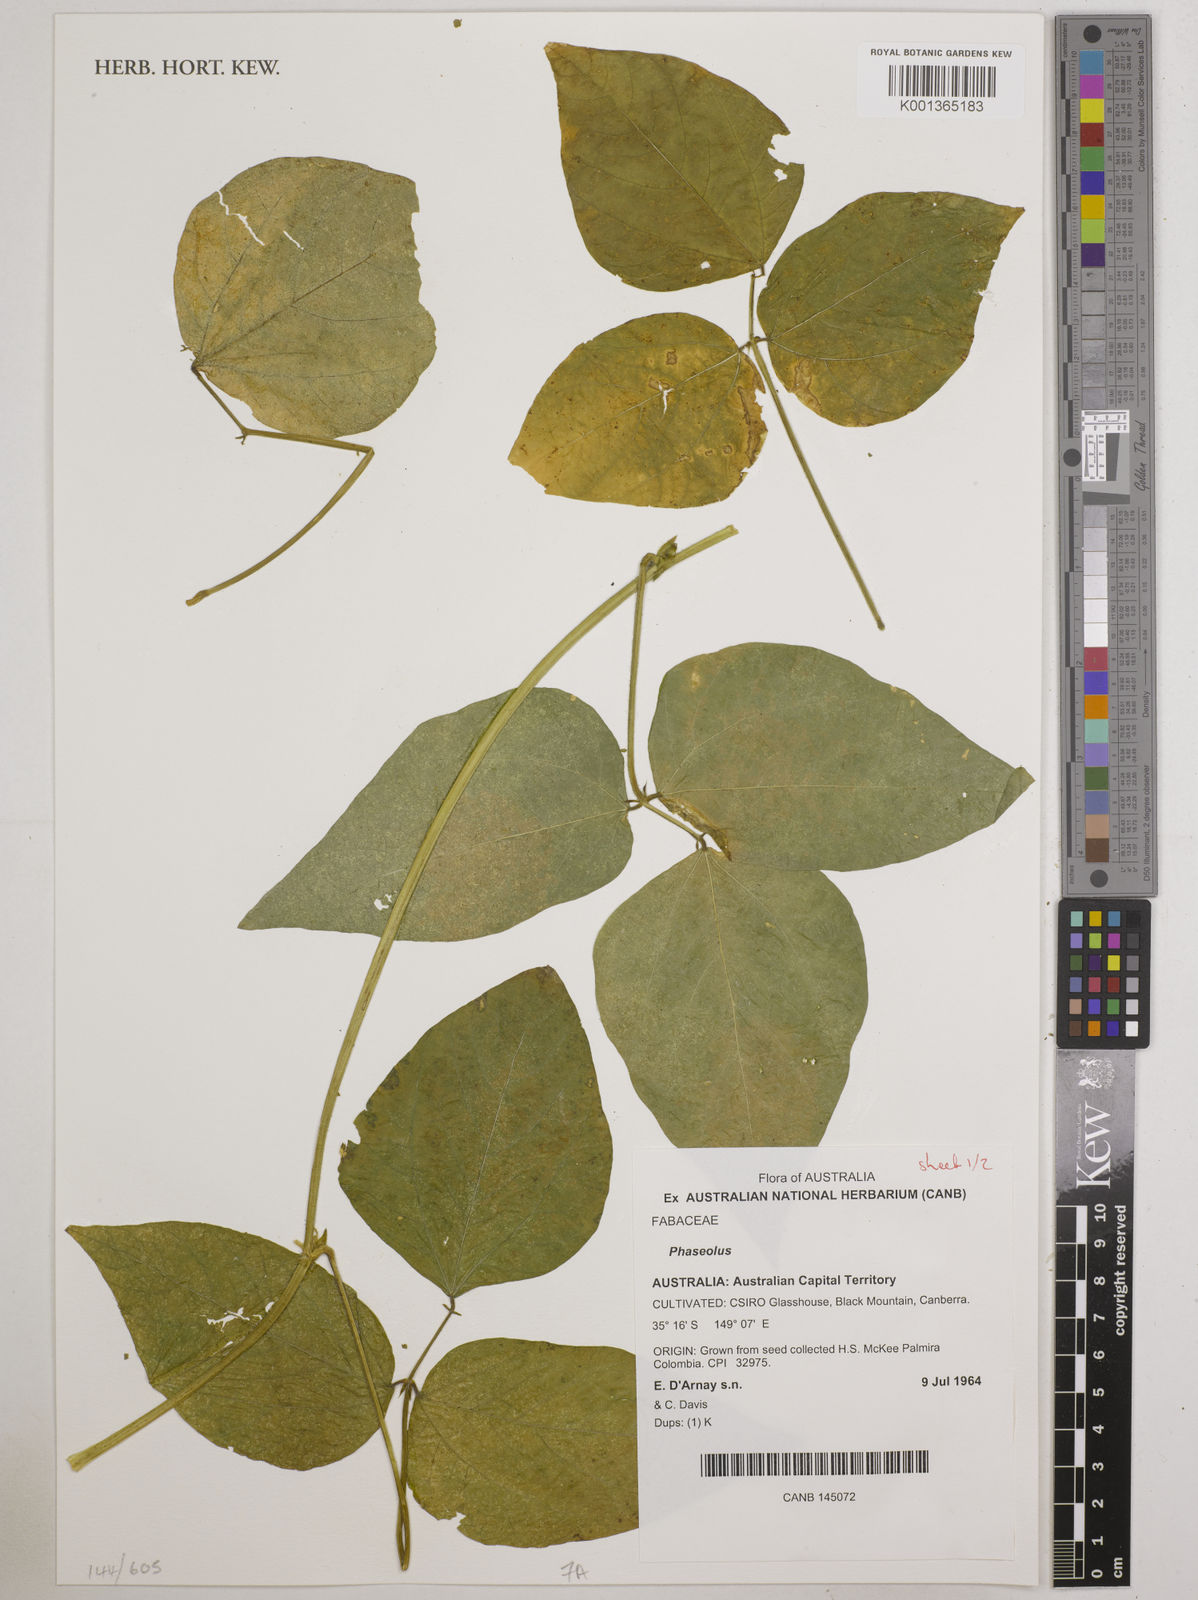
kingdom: Plantae
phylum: Tracheophyta
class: Magnoliopsida
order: Fabales
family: Fabaceae
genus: Phaseolus
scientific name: Phaseolus
